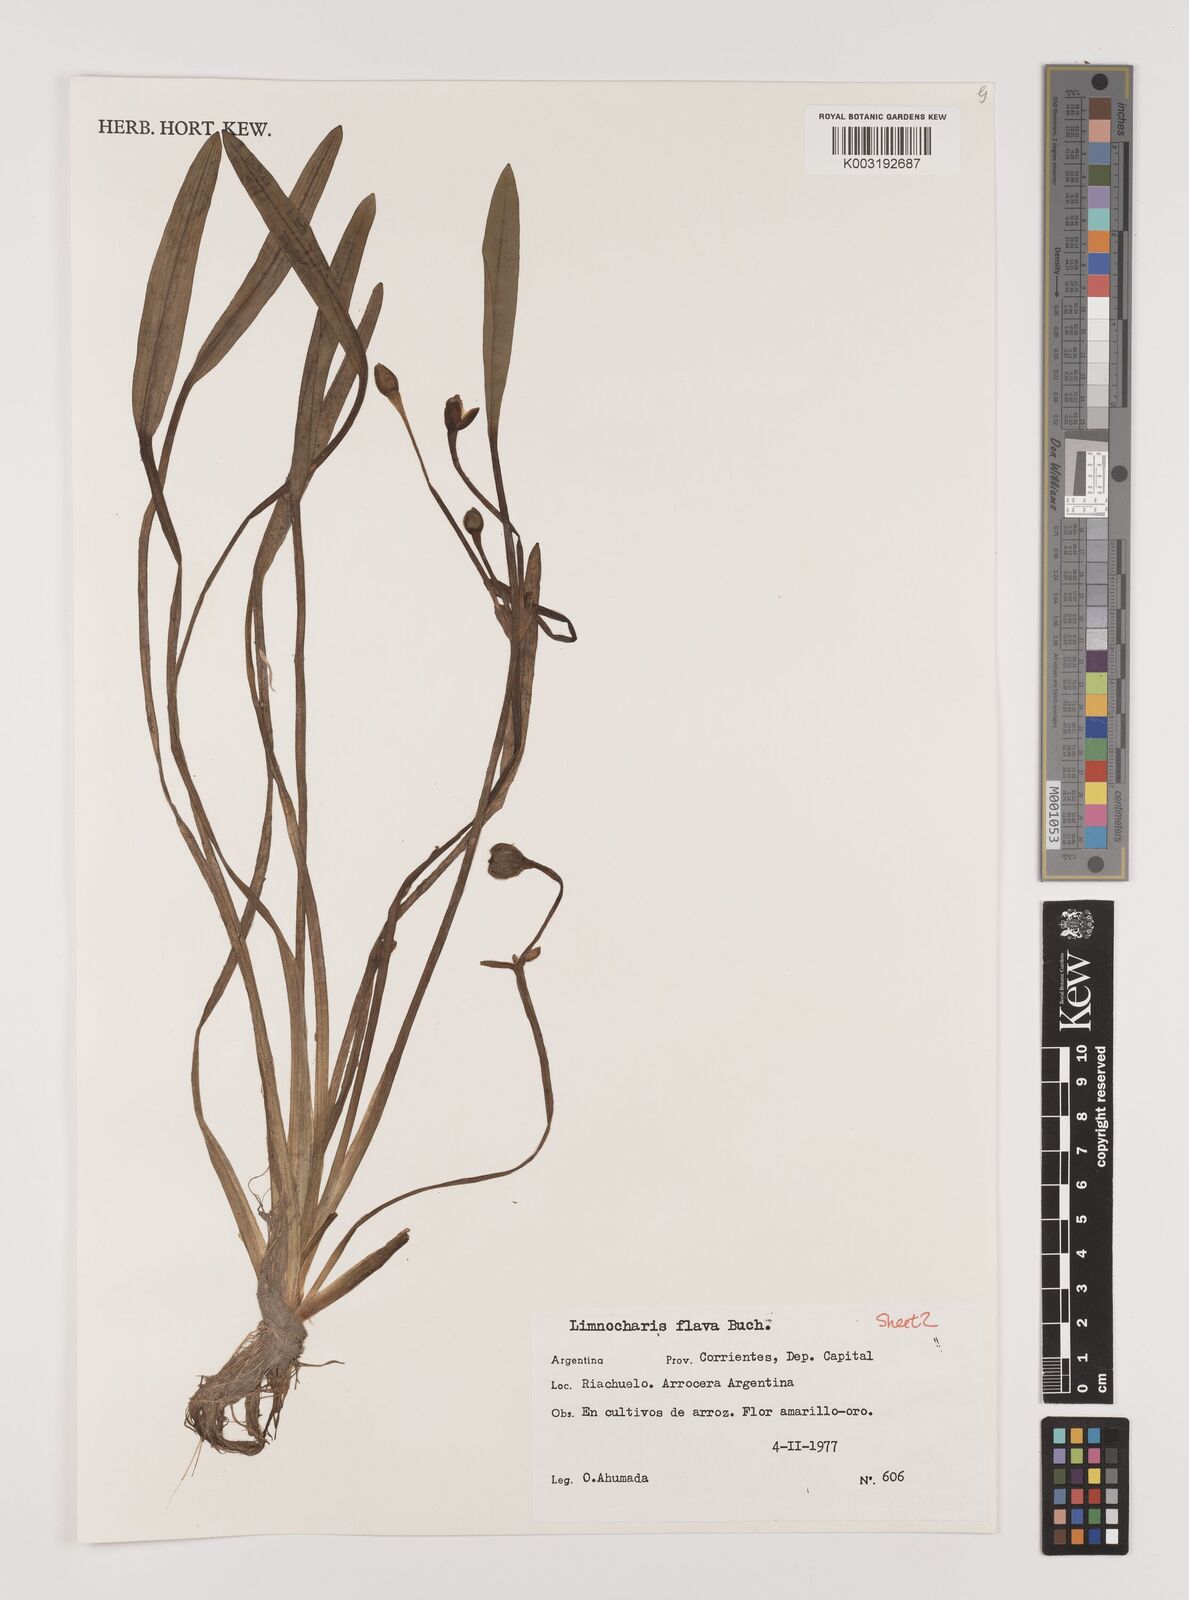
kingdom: Plantae
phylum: Tracheophyta
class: Liliopsida
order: Alismatales
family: Alismataceae
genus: Limnocharis
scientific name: Limnocharis flava
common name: Sawah-flower-rush
